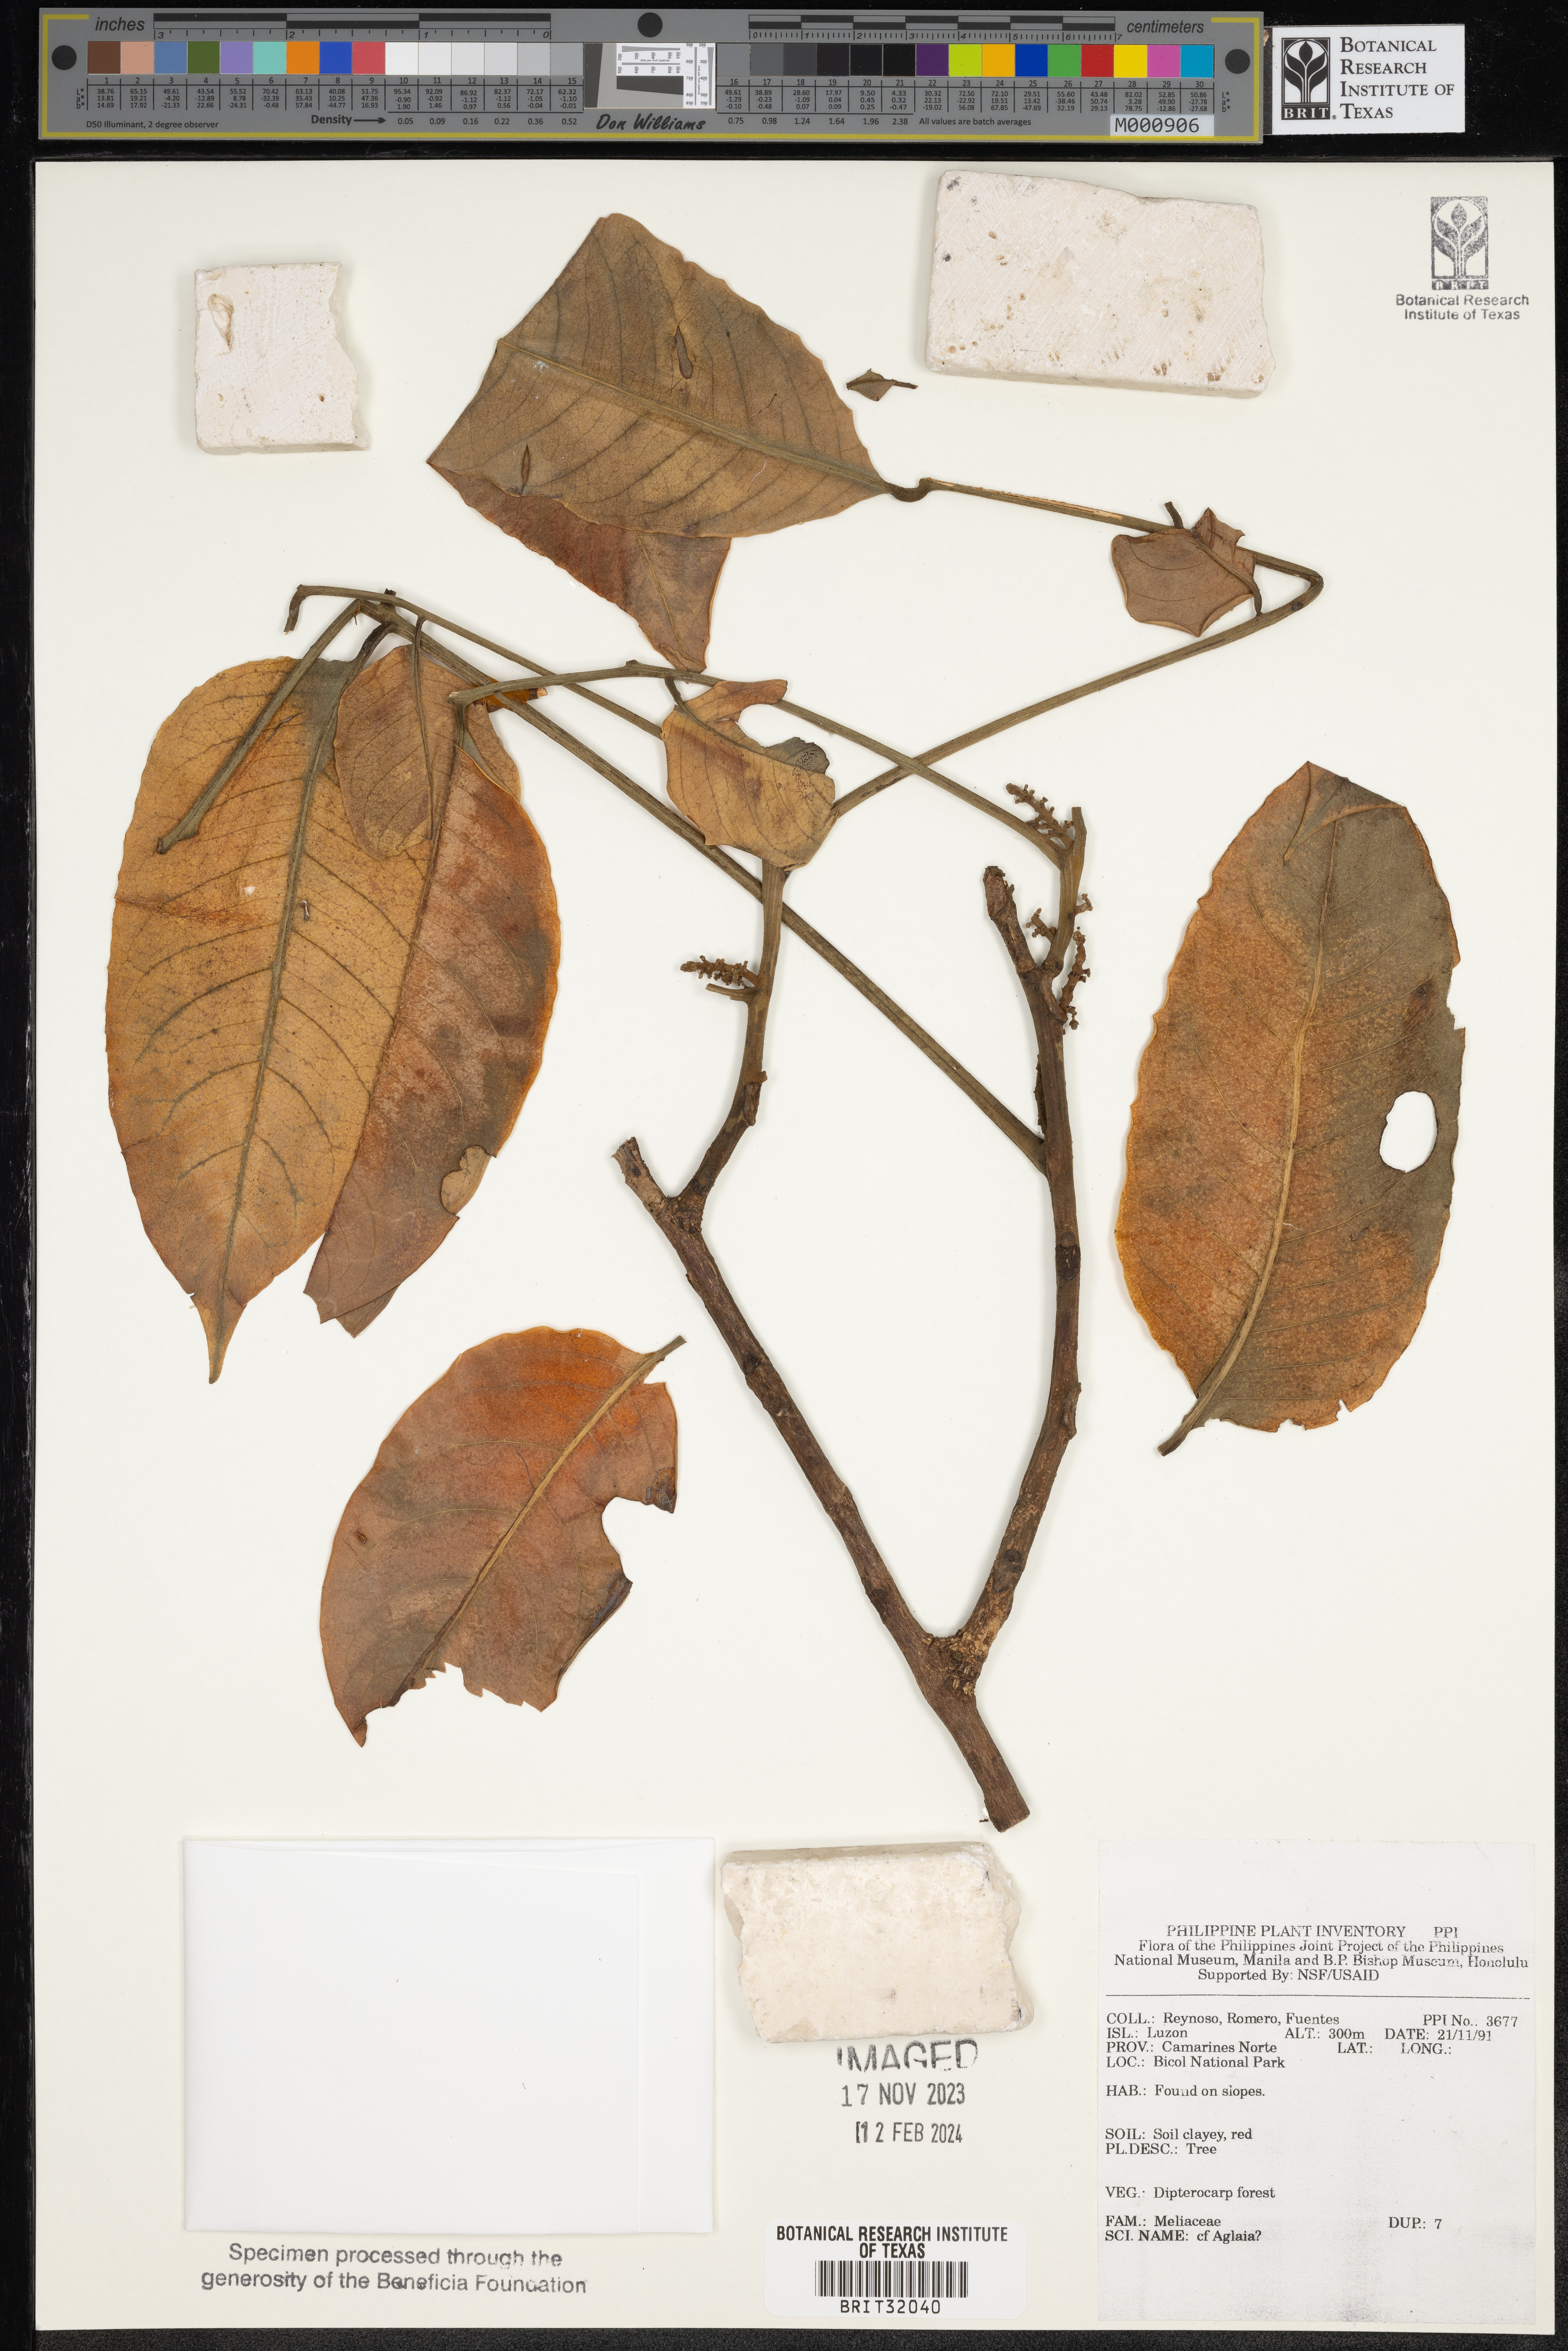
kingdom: Plantae
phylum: Tracheophyta
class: Magnoliopsida
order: Sapindales
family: Meliaceae
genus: Aglaia
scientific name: Aglaia
